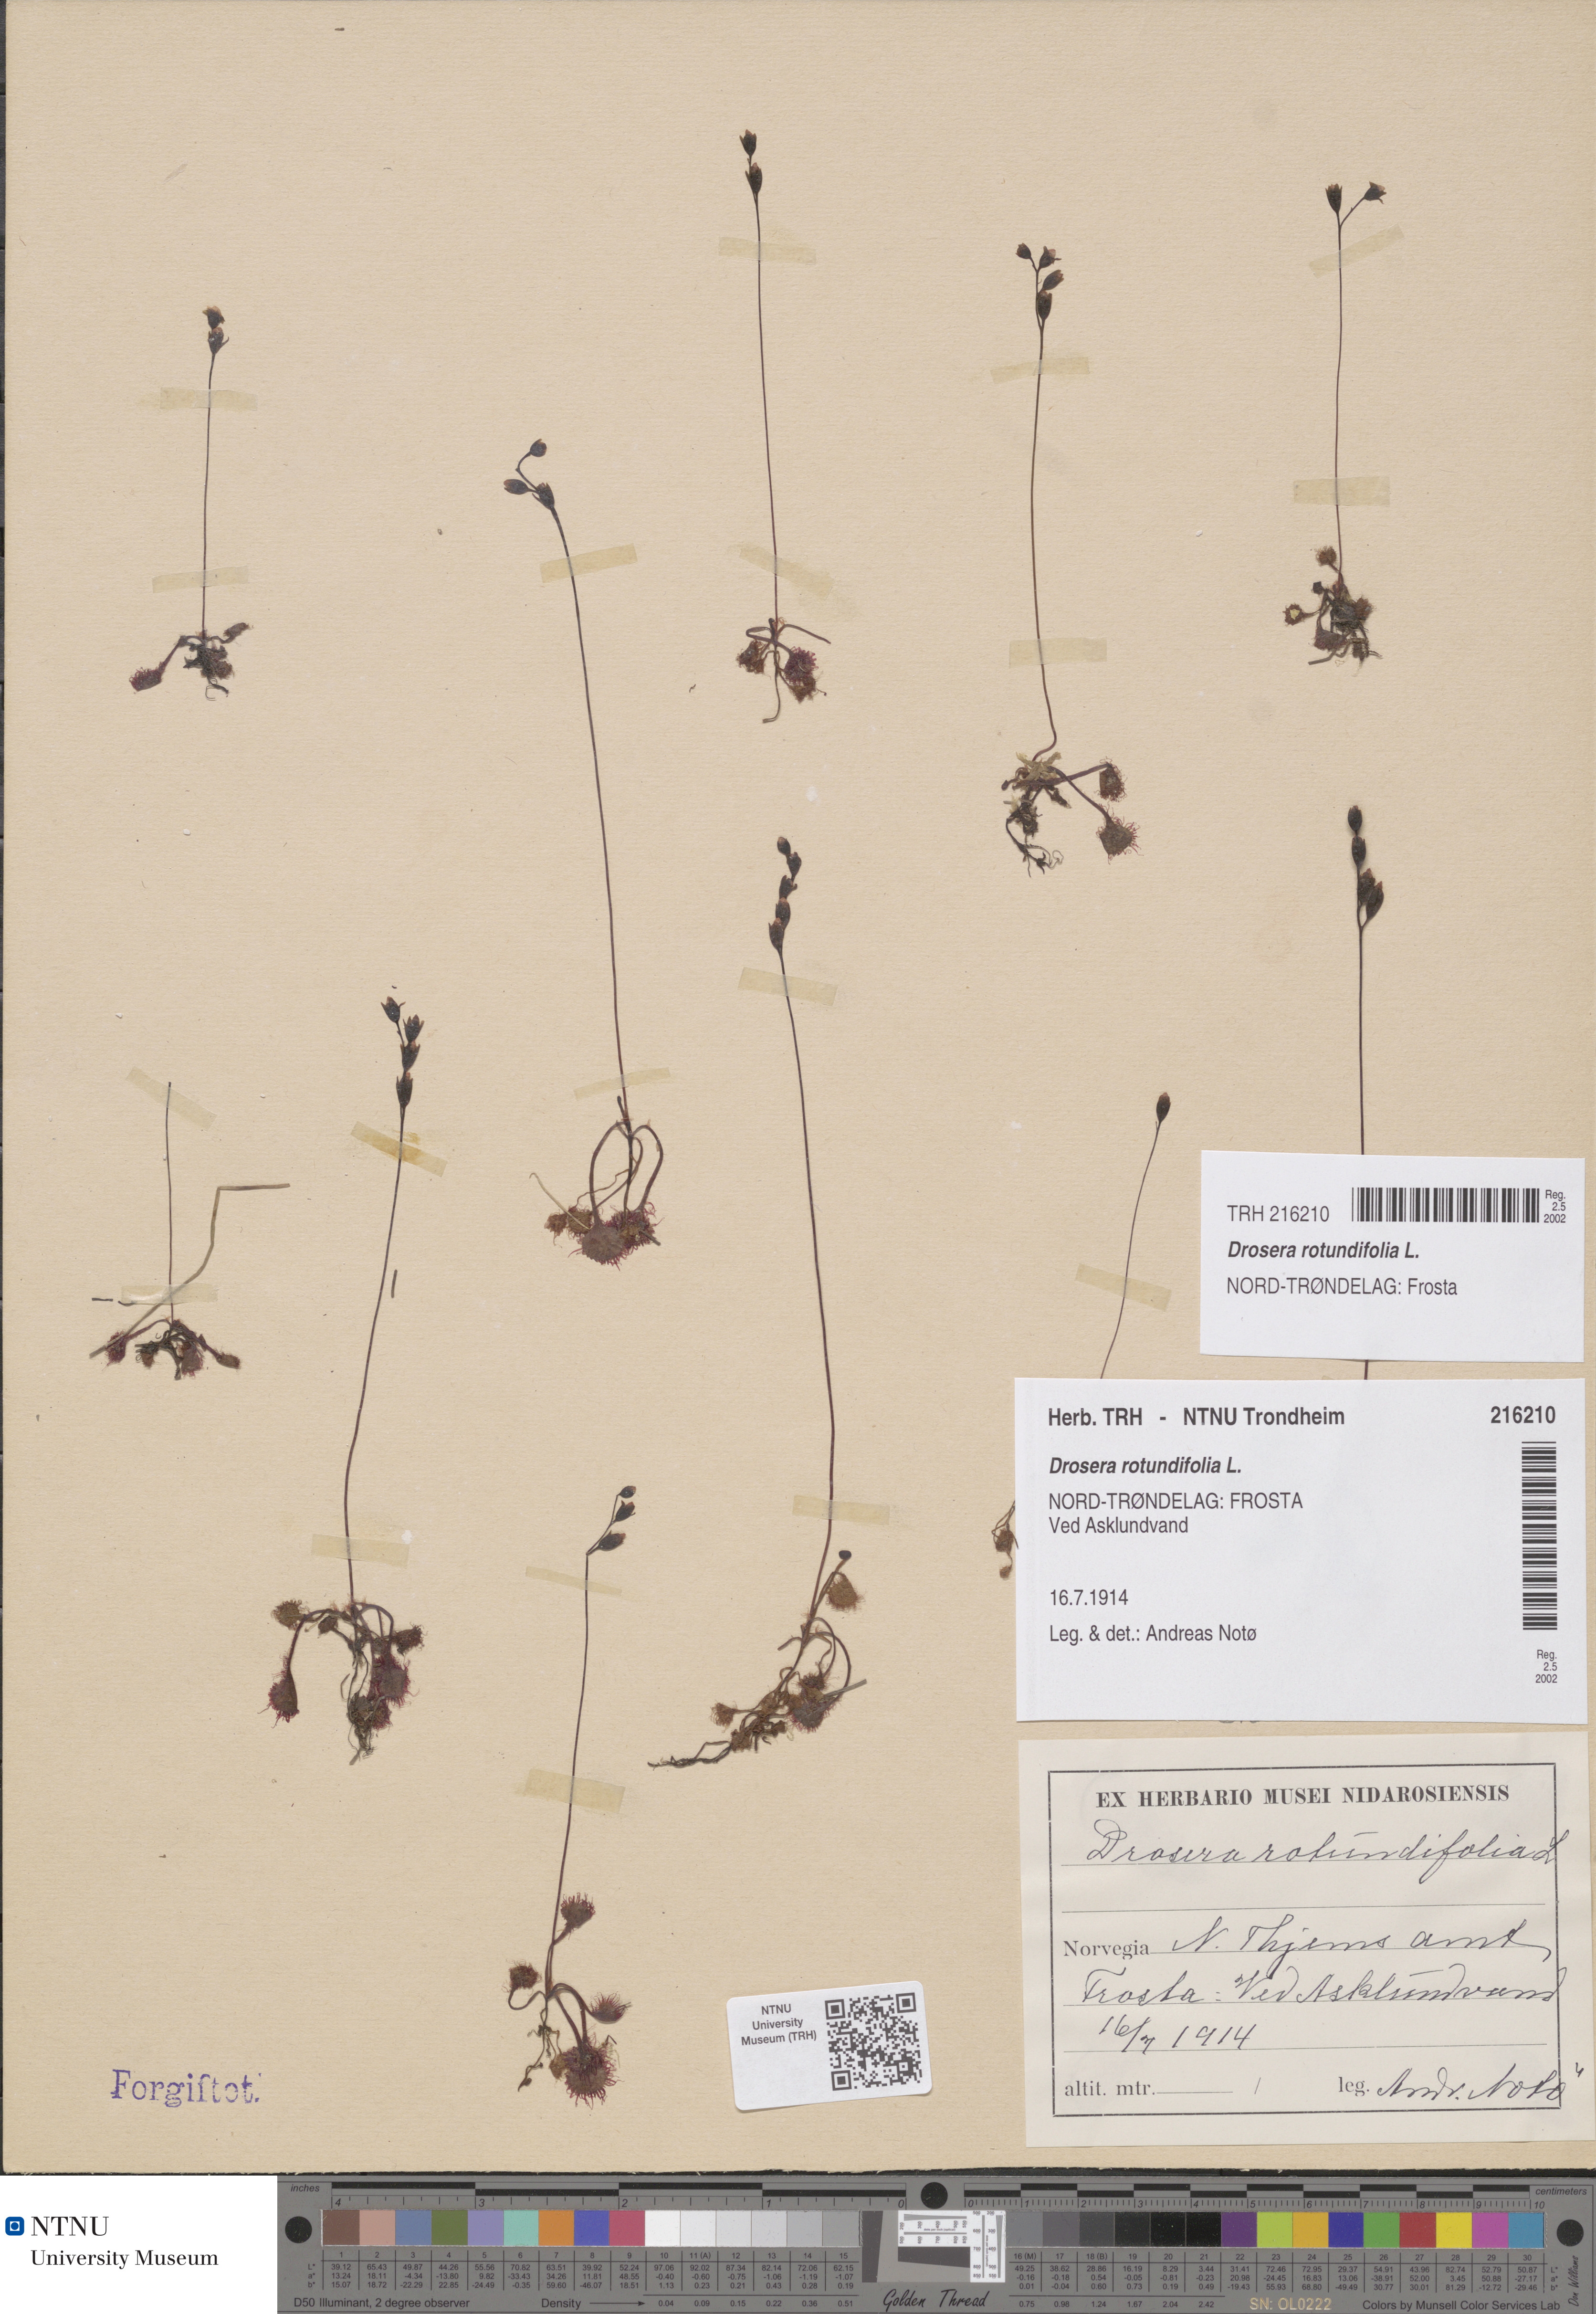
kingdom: Plantae
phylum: Tracheophyta
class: Magnoliopsida
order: Caryophyllales
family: Droseraceae
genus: Drosera
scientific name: Drosera rotundifolia
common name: Round-leaved sundew
